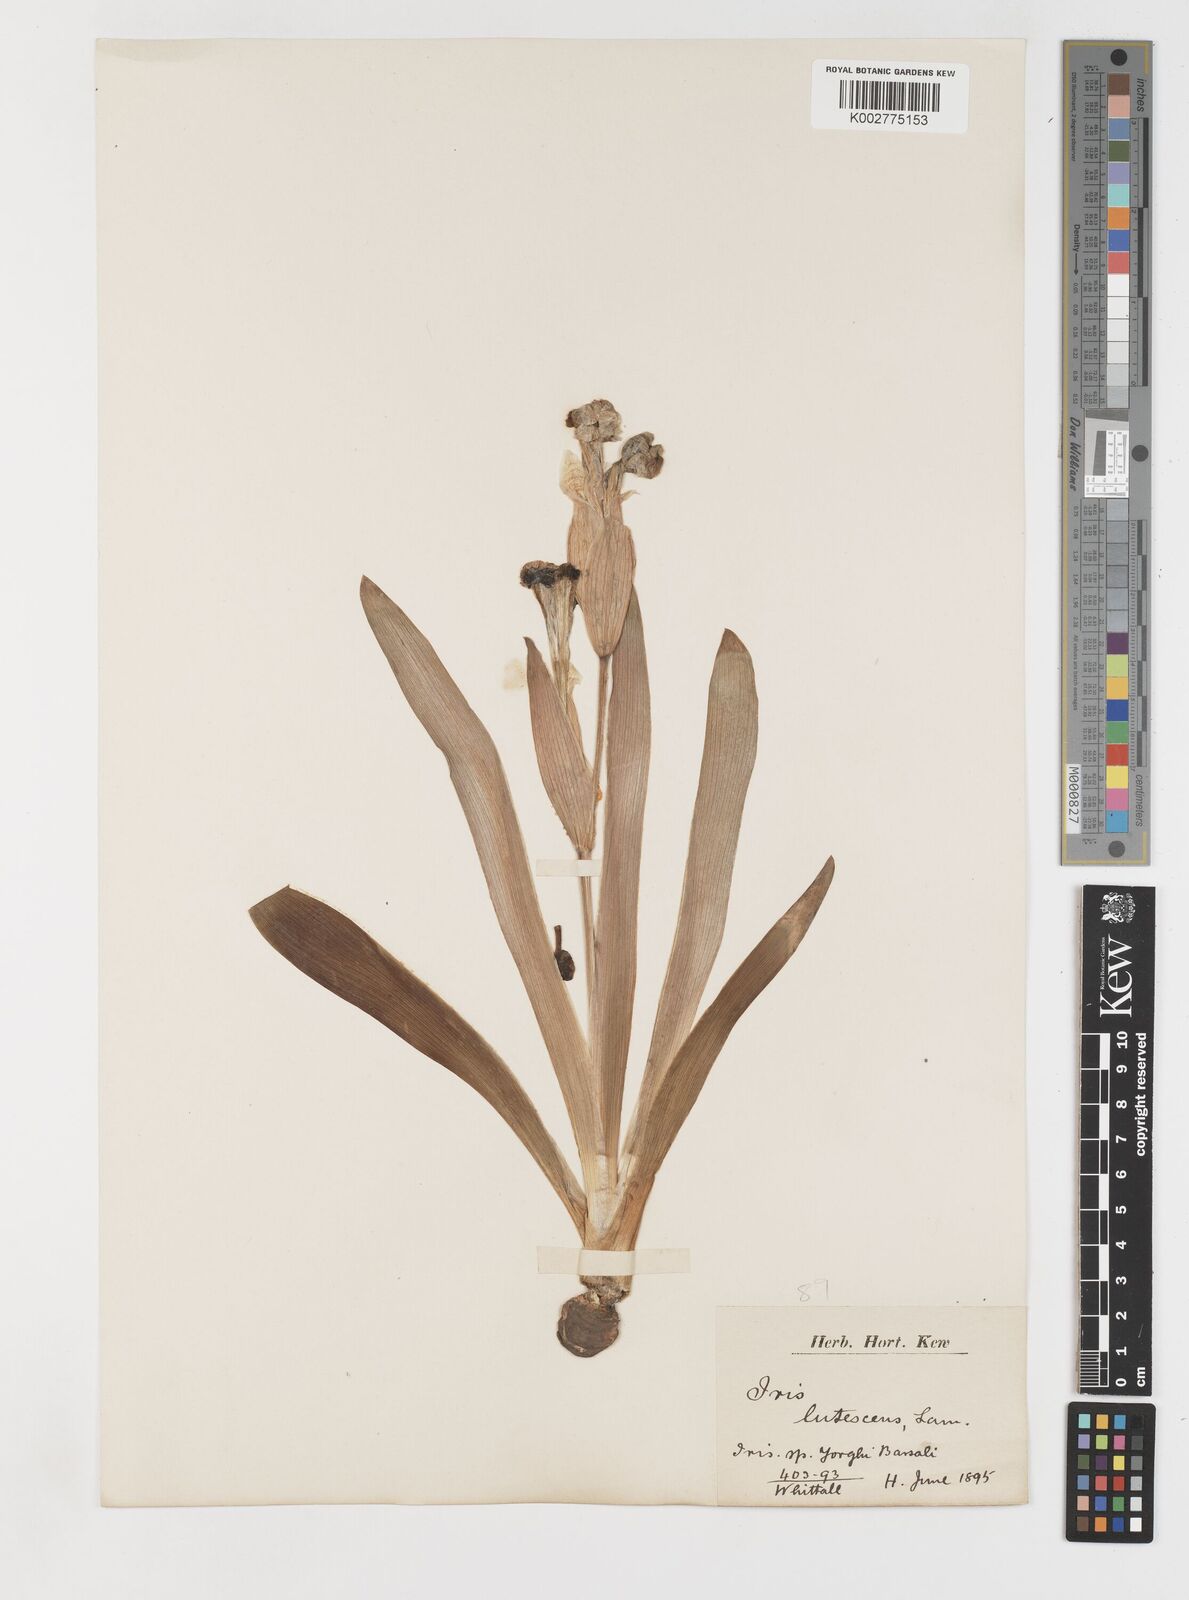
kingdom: Plantae
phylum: Tracheophyta
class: Liliopsida
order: Asparagales
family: Iridaceae
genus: Iris
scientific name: Iris schachtii
